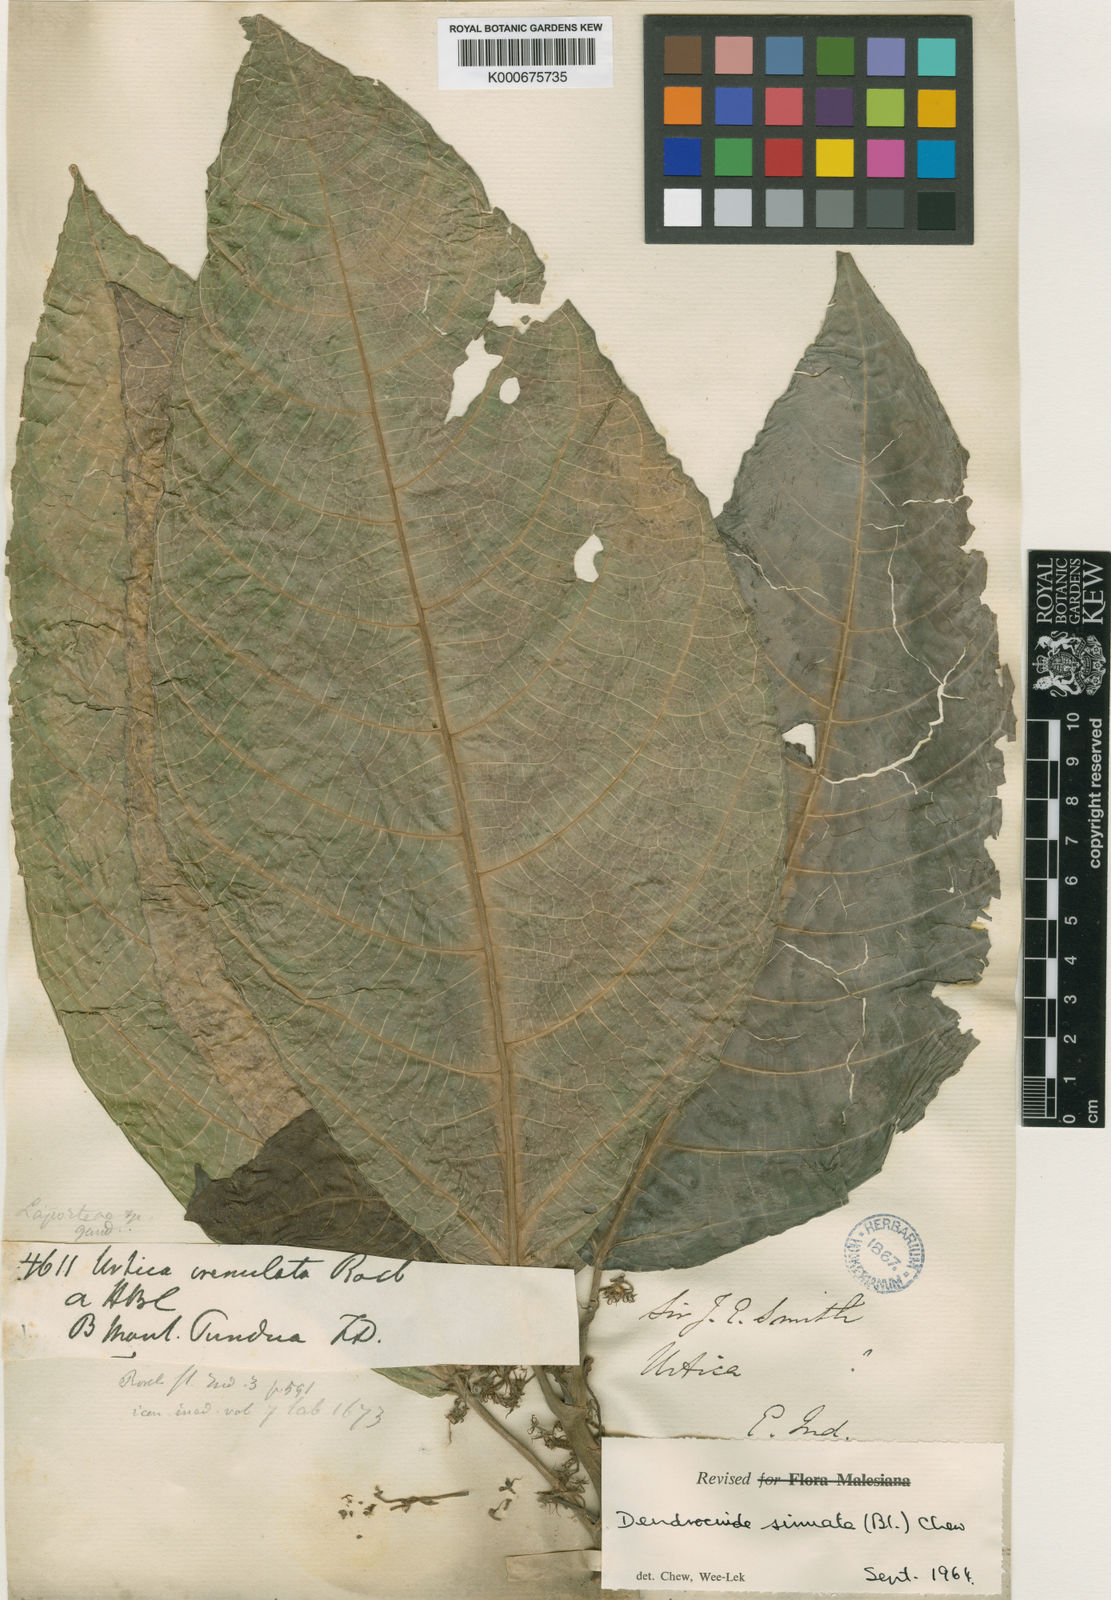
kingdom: Plantae
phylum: Tracheophyta
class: Magnoliopsida
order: Rosales
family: Urticaceae
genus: Dendrocnide
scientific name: Dendrocnide sinuata
